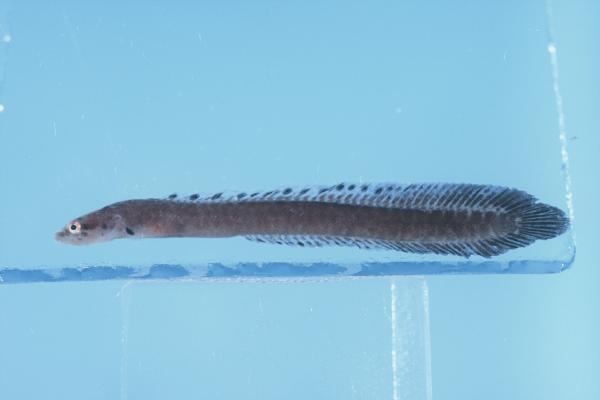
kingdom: Animalia
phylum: Chordata
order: Perciformes
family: Pseudochromidae
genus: Halimuraena
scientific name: Halimuraena shakai
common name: Zulu snakelet
